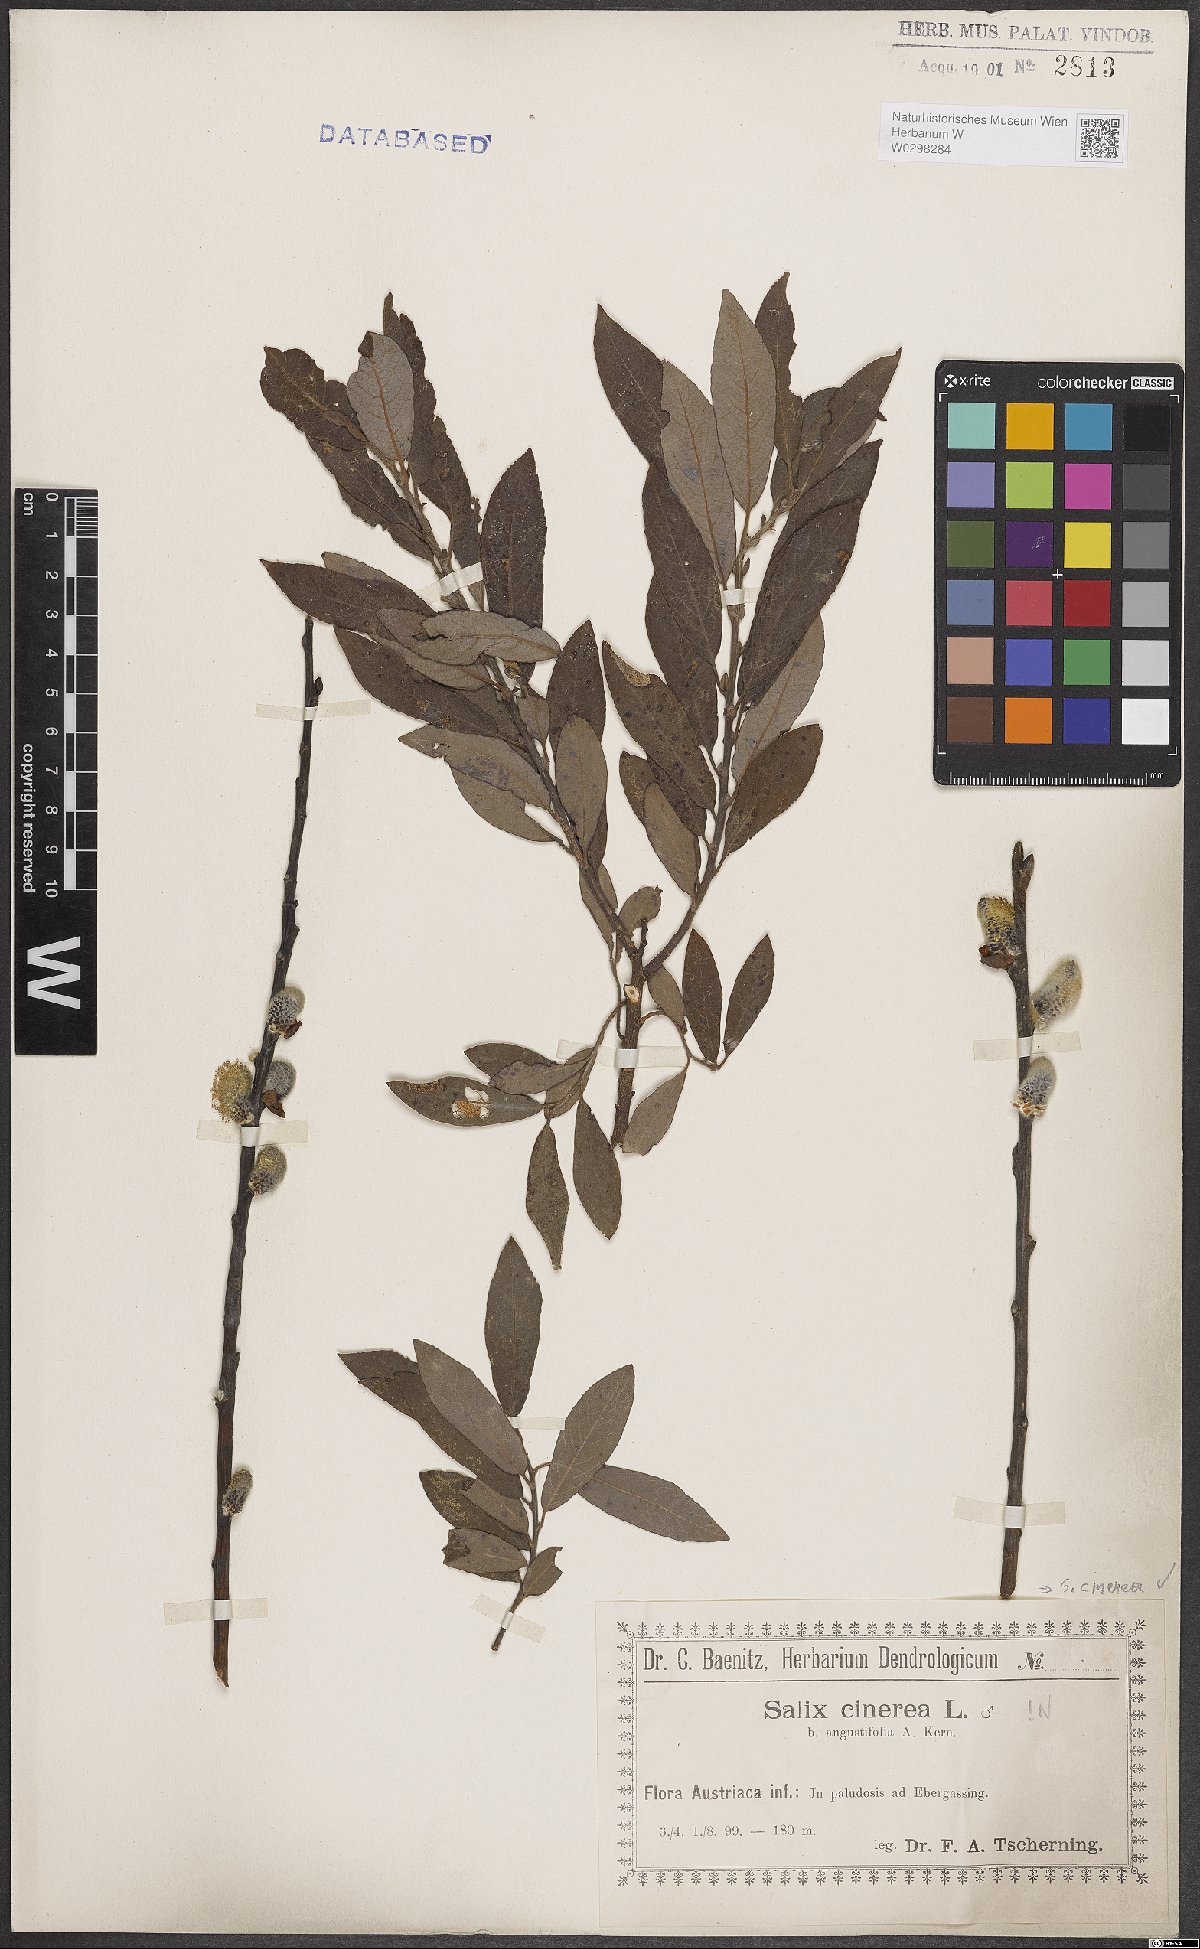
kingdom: Plantae
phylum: Tracheophyta
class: Magnoliopsida
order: Malpighiales
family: Salicaceae
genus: Salix
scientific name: Salix cinerea
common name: Common sallow
